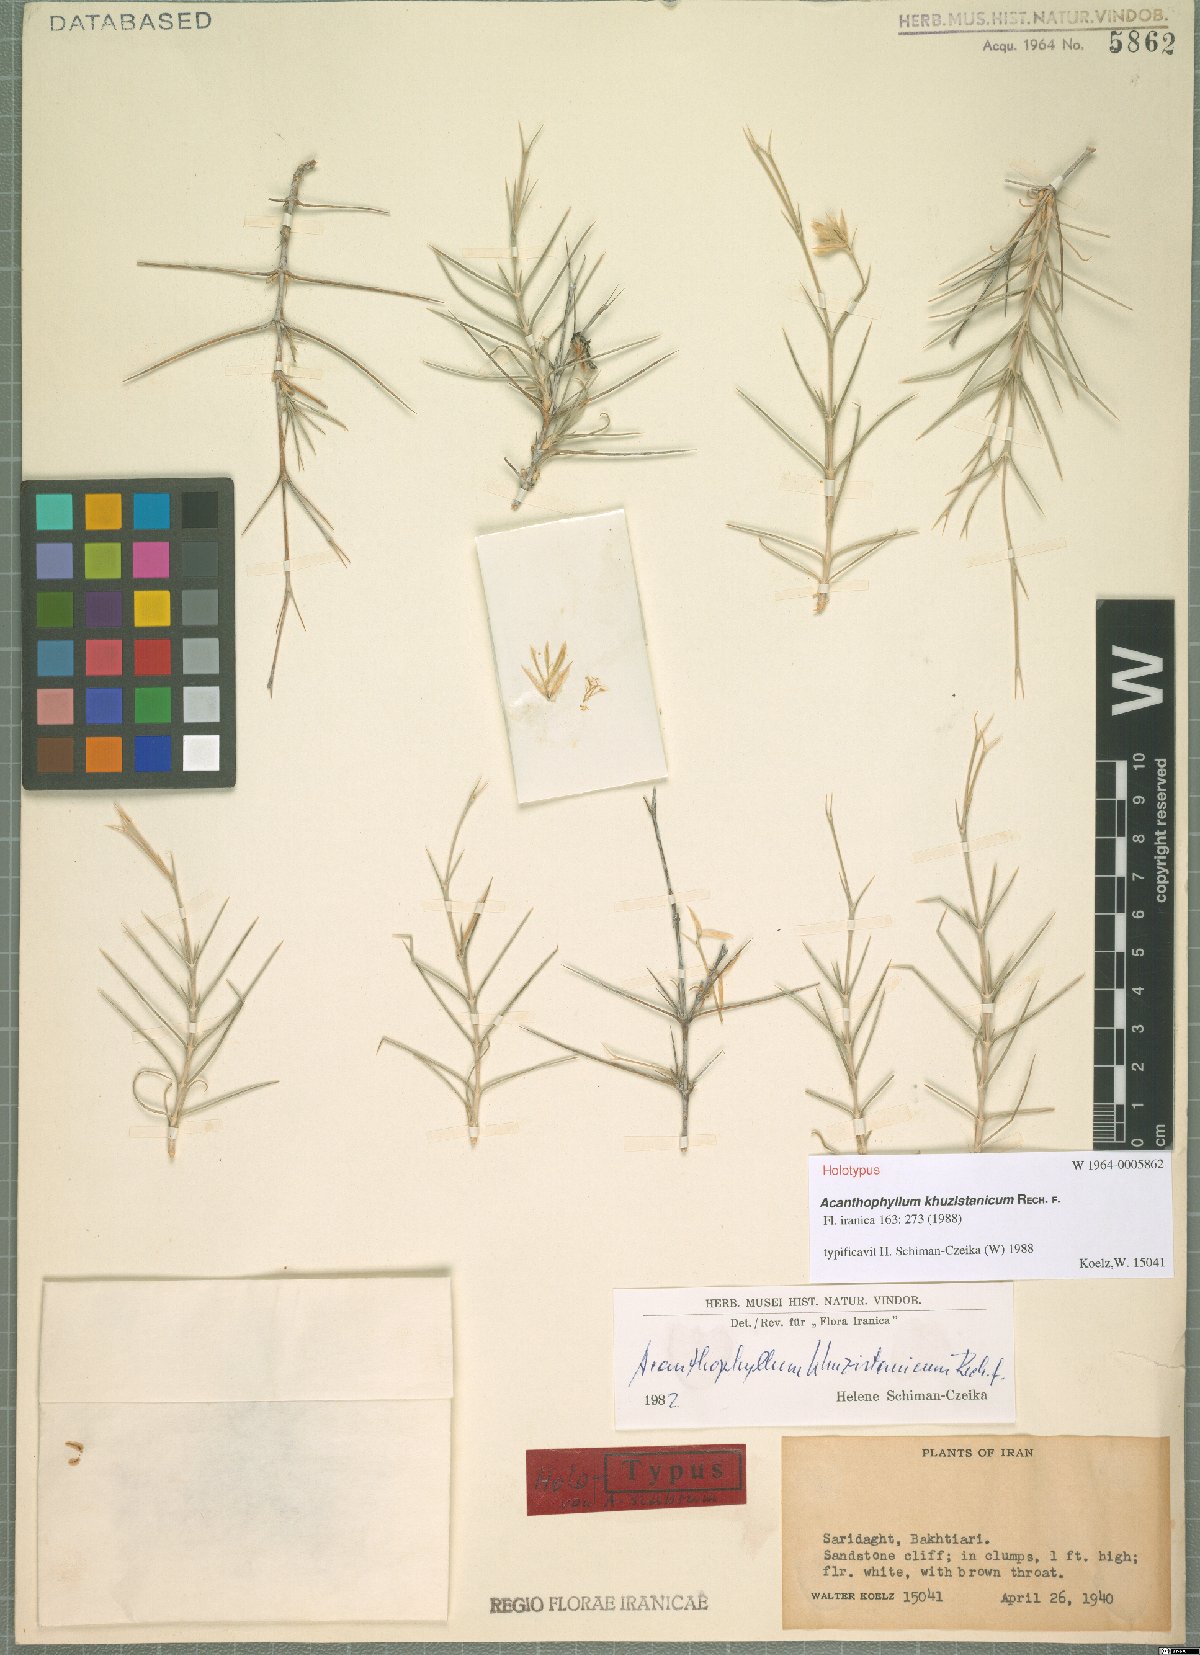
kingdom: Plantae
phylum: Tracheophyta
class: Magnoliopsida
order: Caryophyllales
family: Caryophyllaceae
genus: Acanthophyllum
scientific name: Acanthophyllum khuzistanicum
